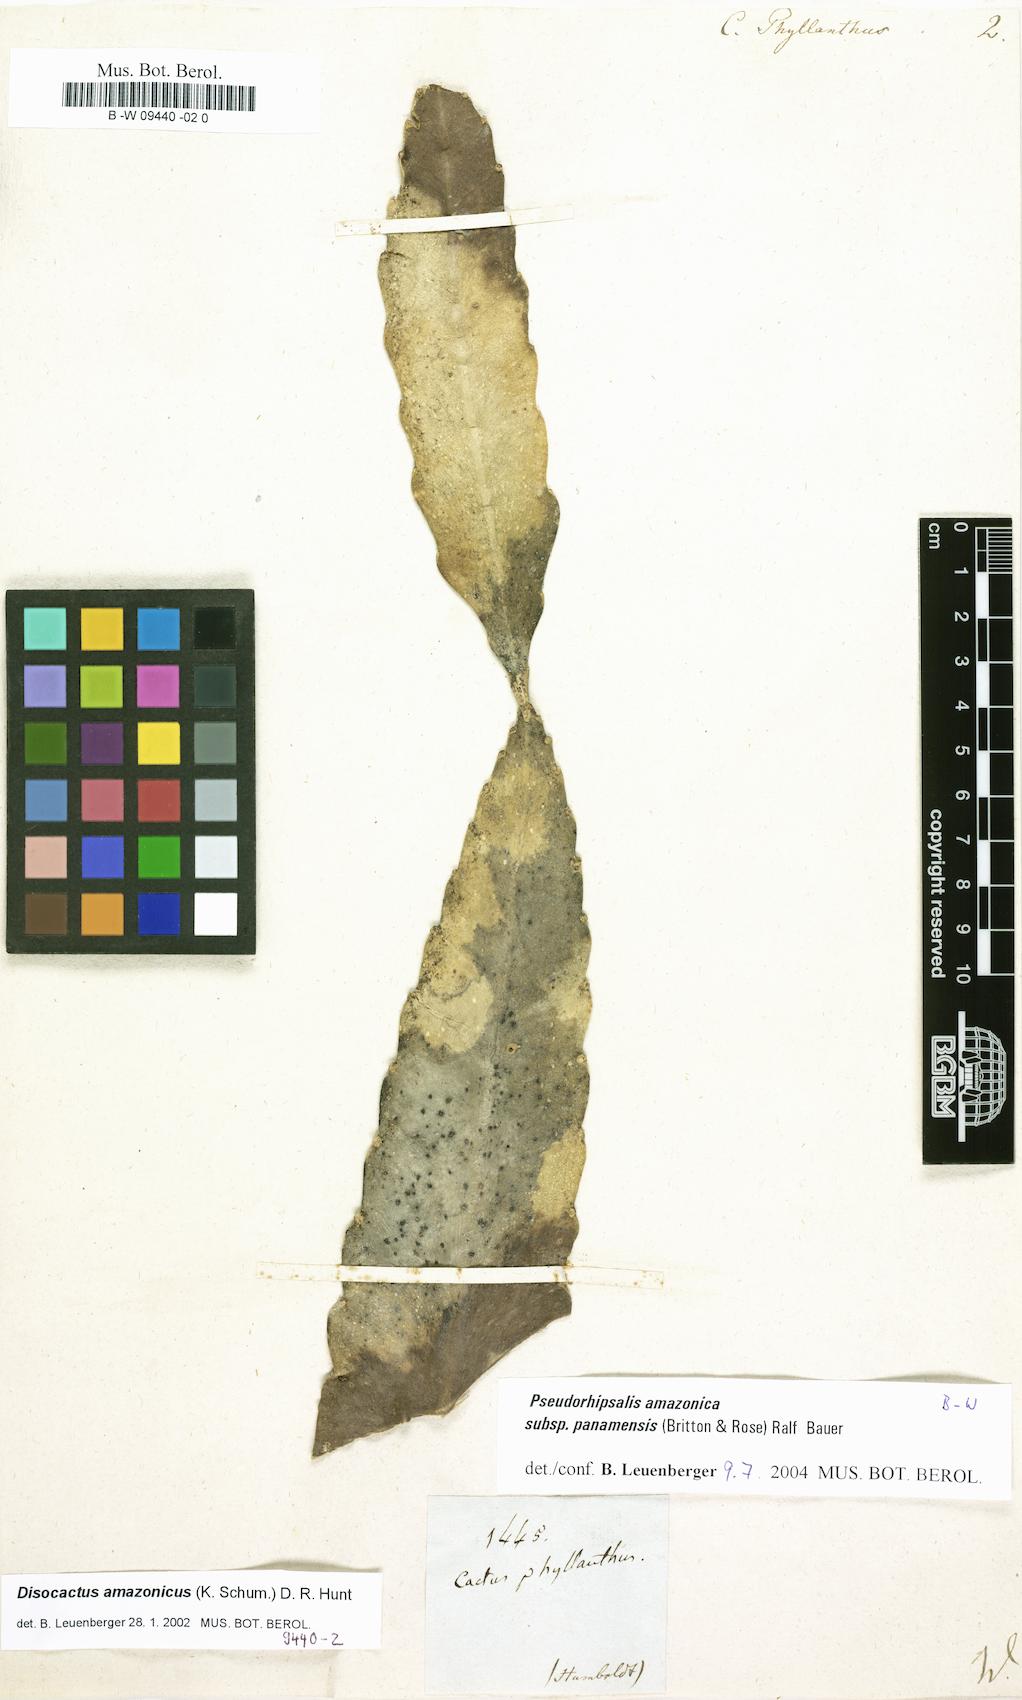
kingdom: Plantae
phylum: Tracheophyta
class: Magnoliopsida
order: Caryophyllales
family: Cactaceae
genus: Epiphyllum
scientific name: Epiphyllum phyllanthus
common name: Climbing cactus
